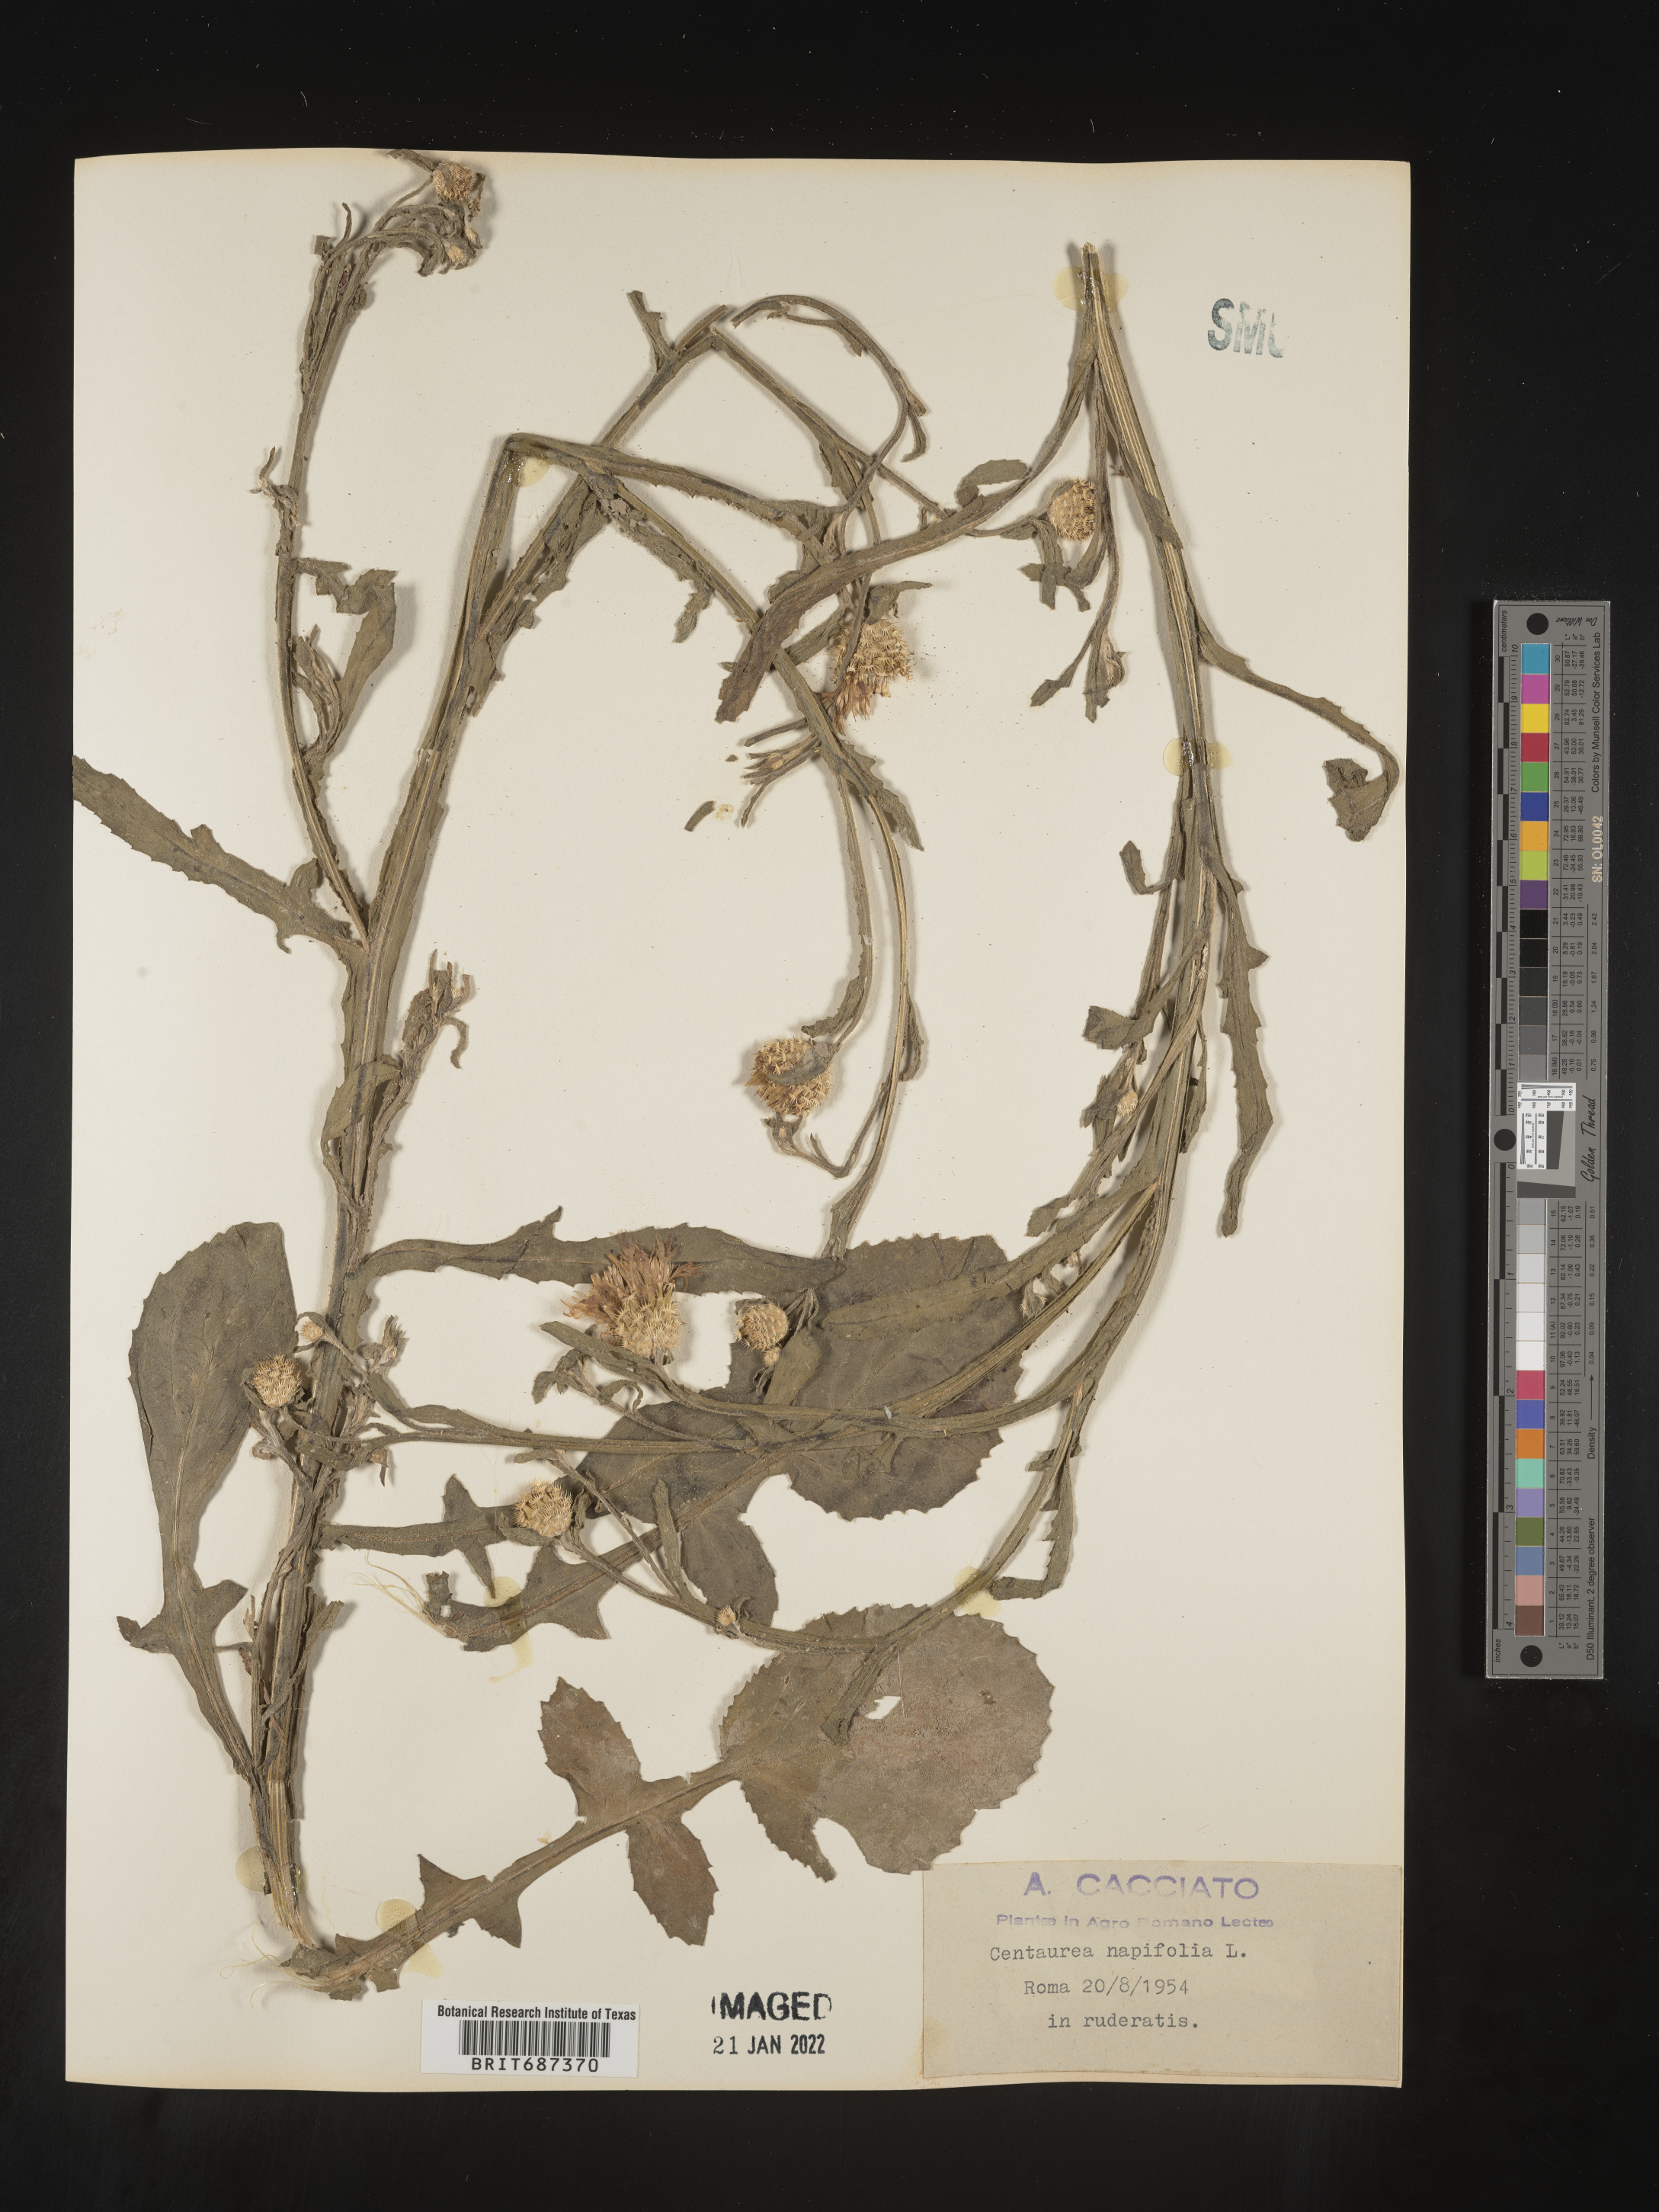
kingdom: Plantae
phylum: Tracheophyta
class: Magnoliopsida
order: Asterales
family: Asteraceae
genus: Centaurea
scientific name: Centaurea
